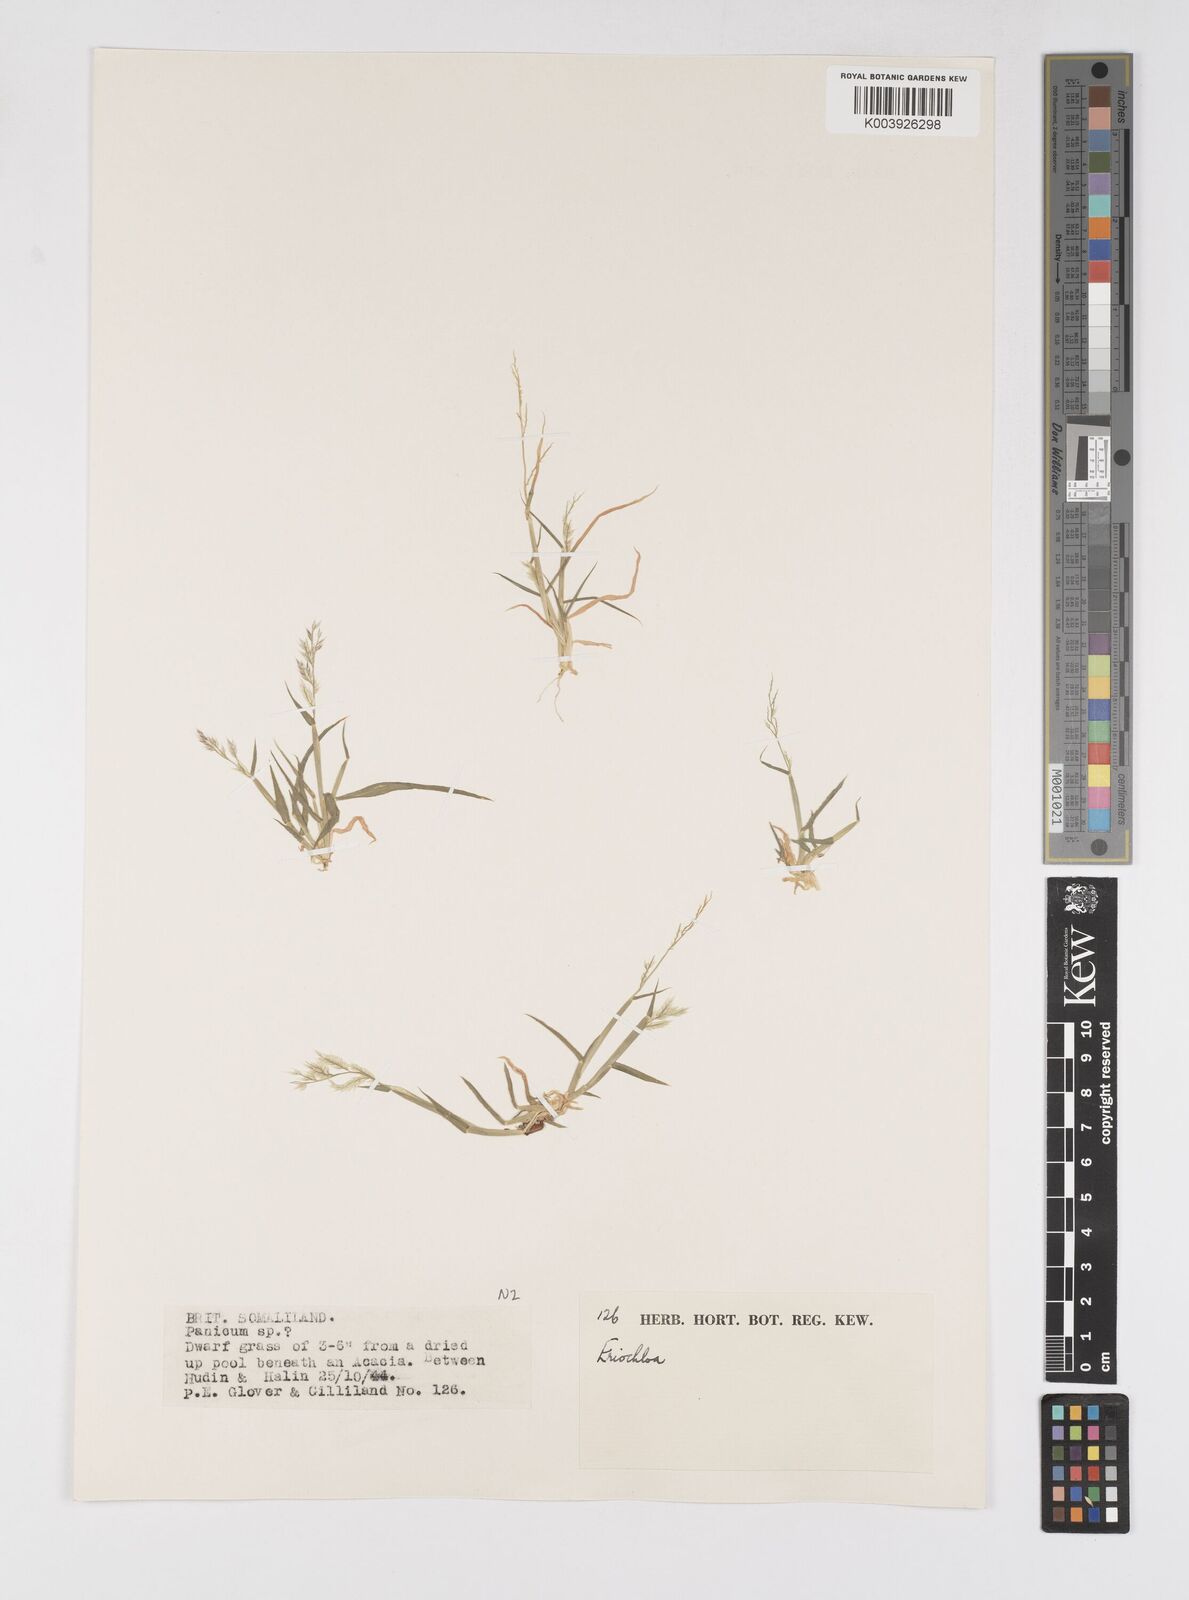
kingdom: Plantae
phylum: Tracheophyta
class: Liliopsida
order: Poales
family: Poaceae
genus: Eriochloa
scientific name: Eriochloa barbatus
